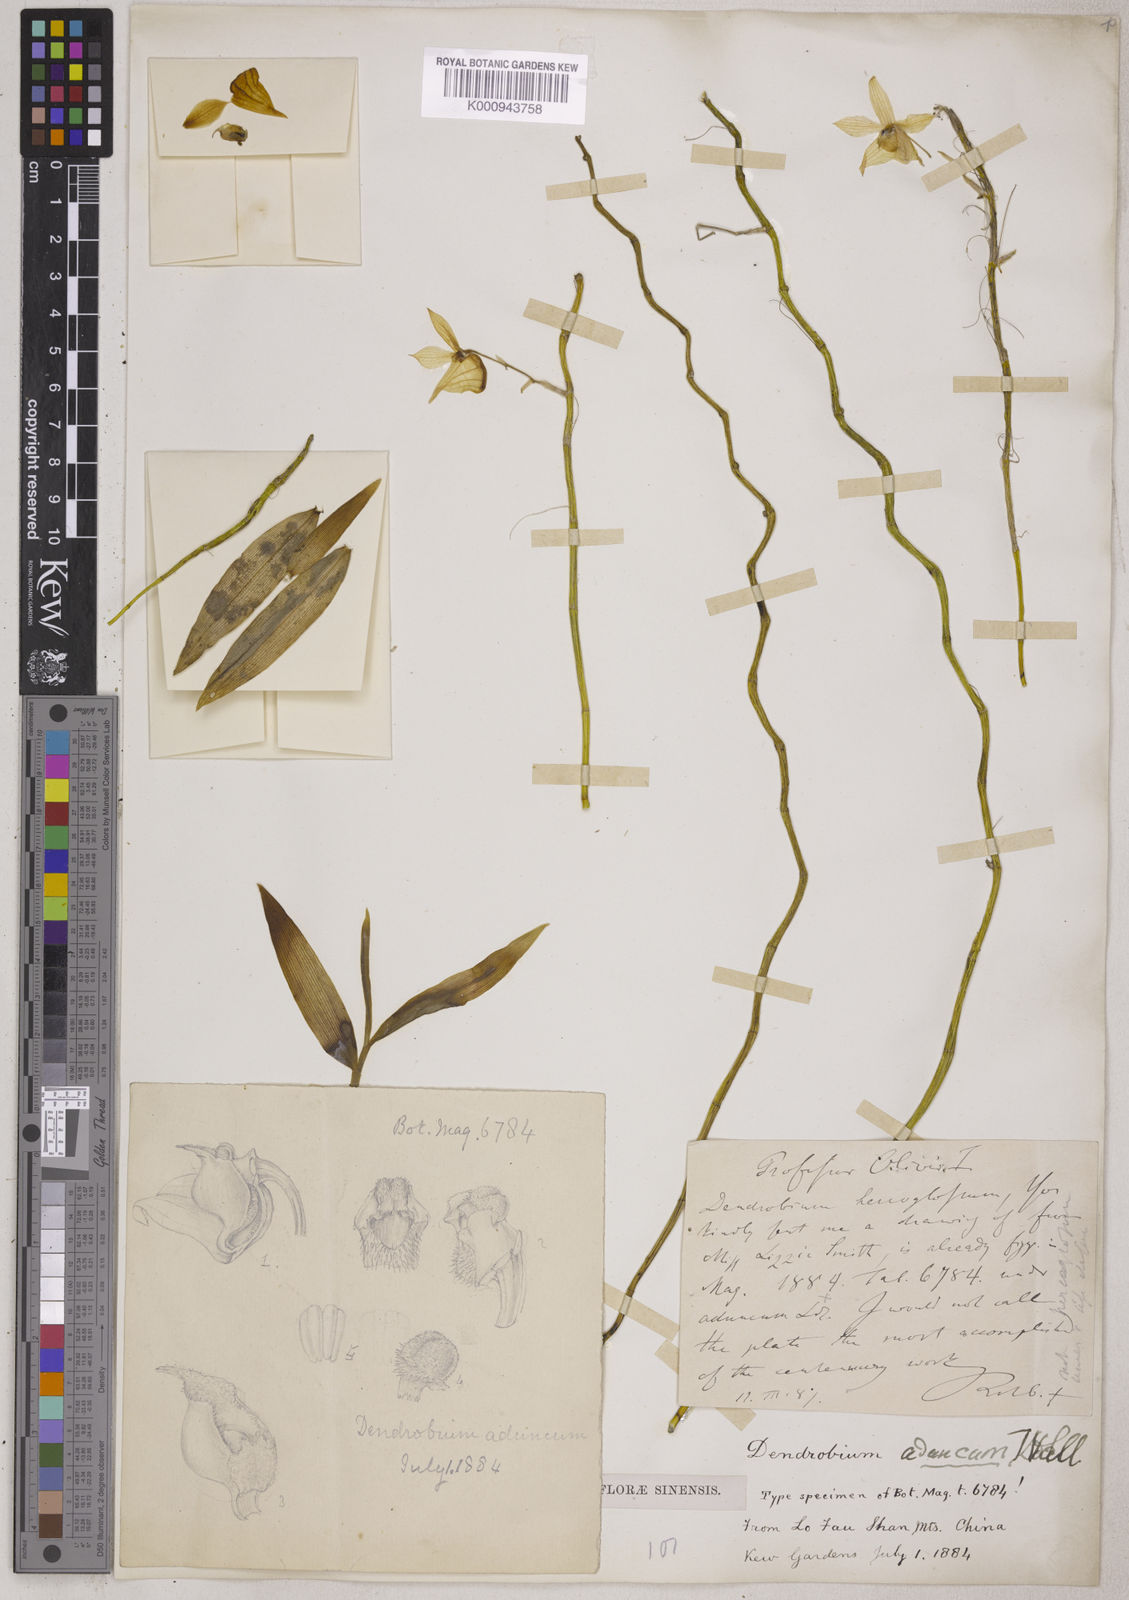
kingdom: Plantae
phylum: Tracheophyta
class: Liliopsida
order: Asparagales
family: Orchidaceae
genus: Dendrobium
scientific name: Dendrobium aduncum
